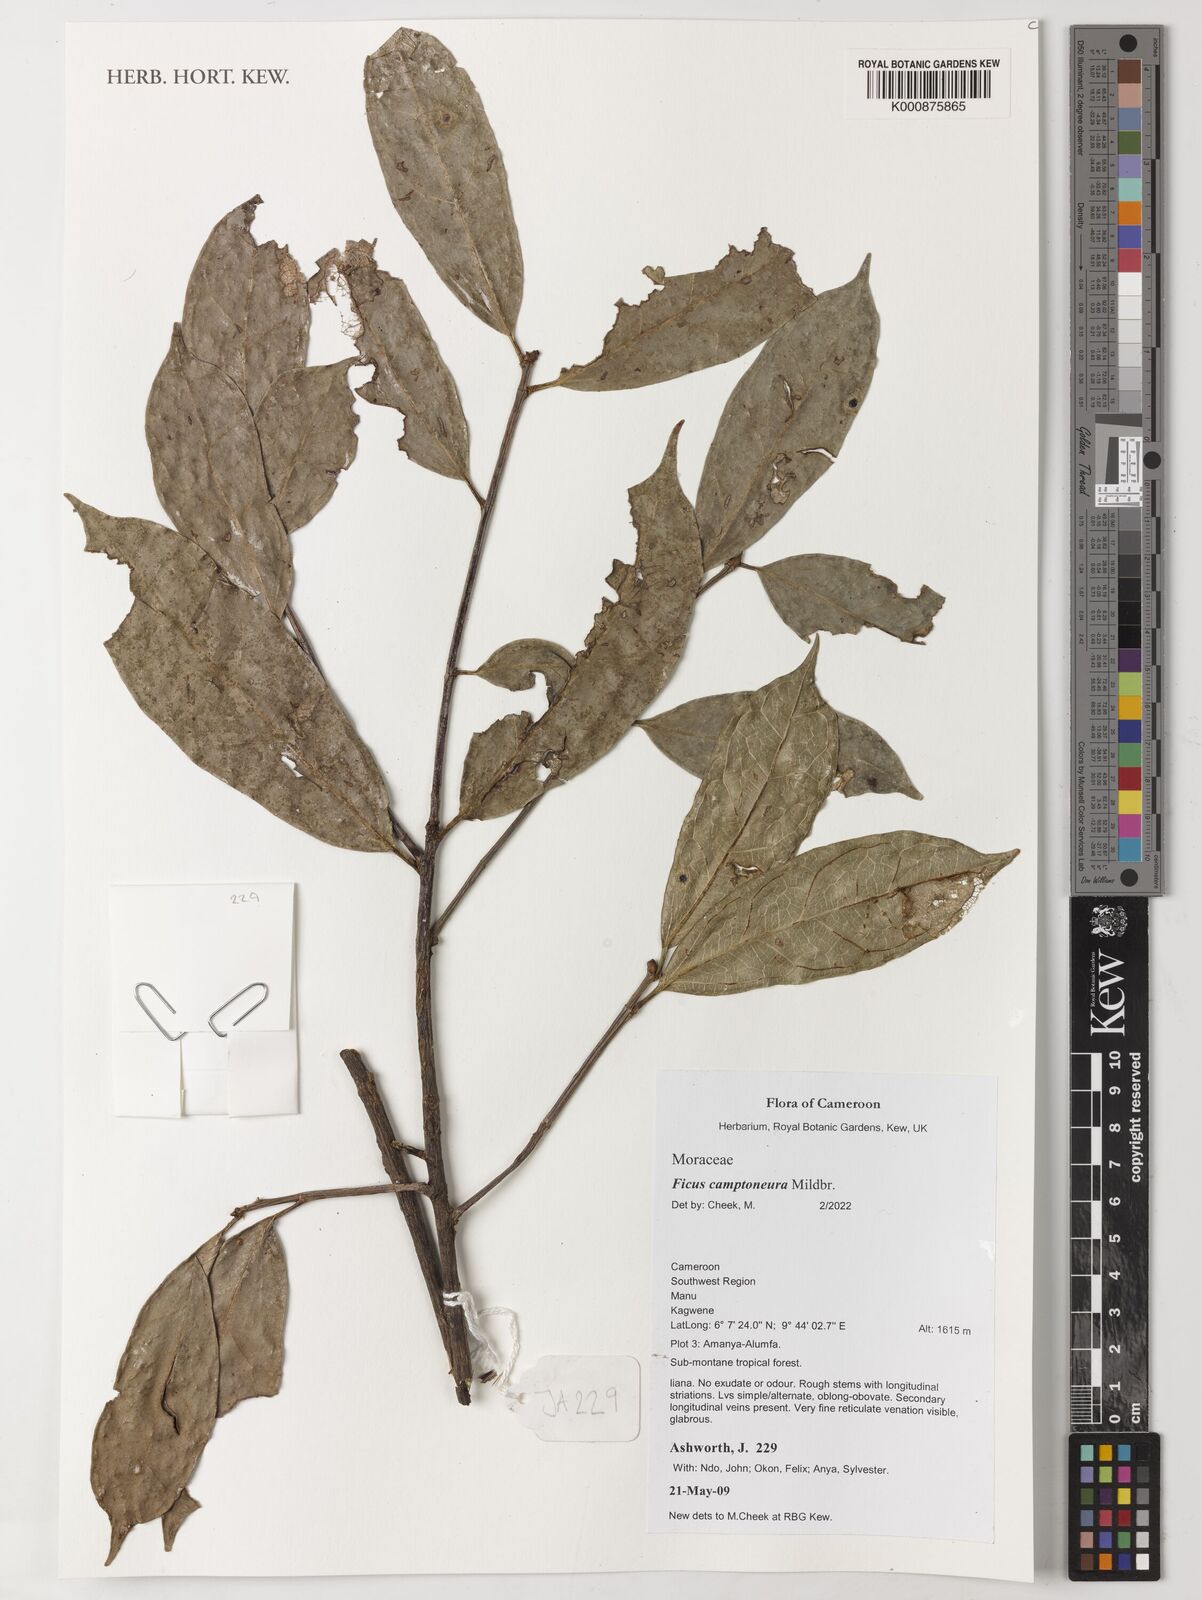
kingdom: Plantae
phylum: Tracheophyta
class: Magnoliopsida
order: Rosales
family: Moraceae
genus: Ficus
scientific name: Ficus ardisioides
